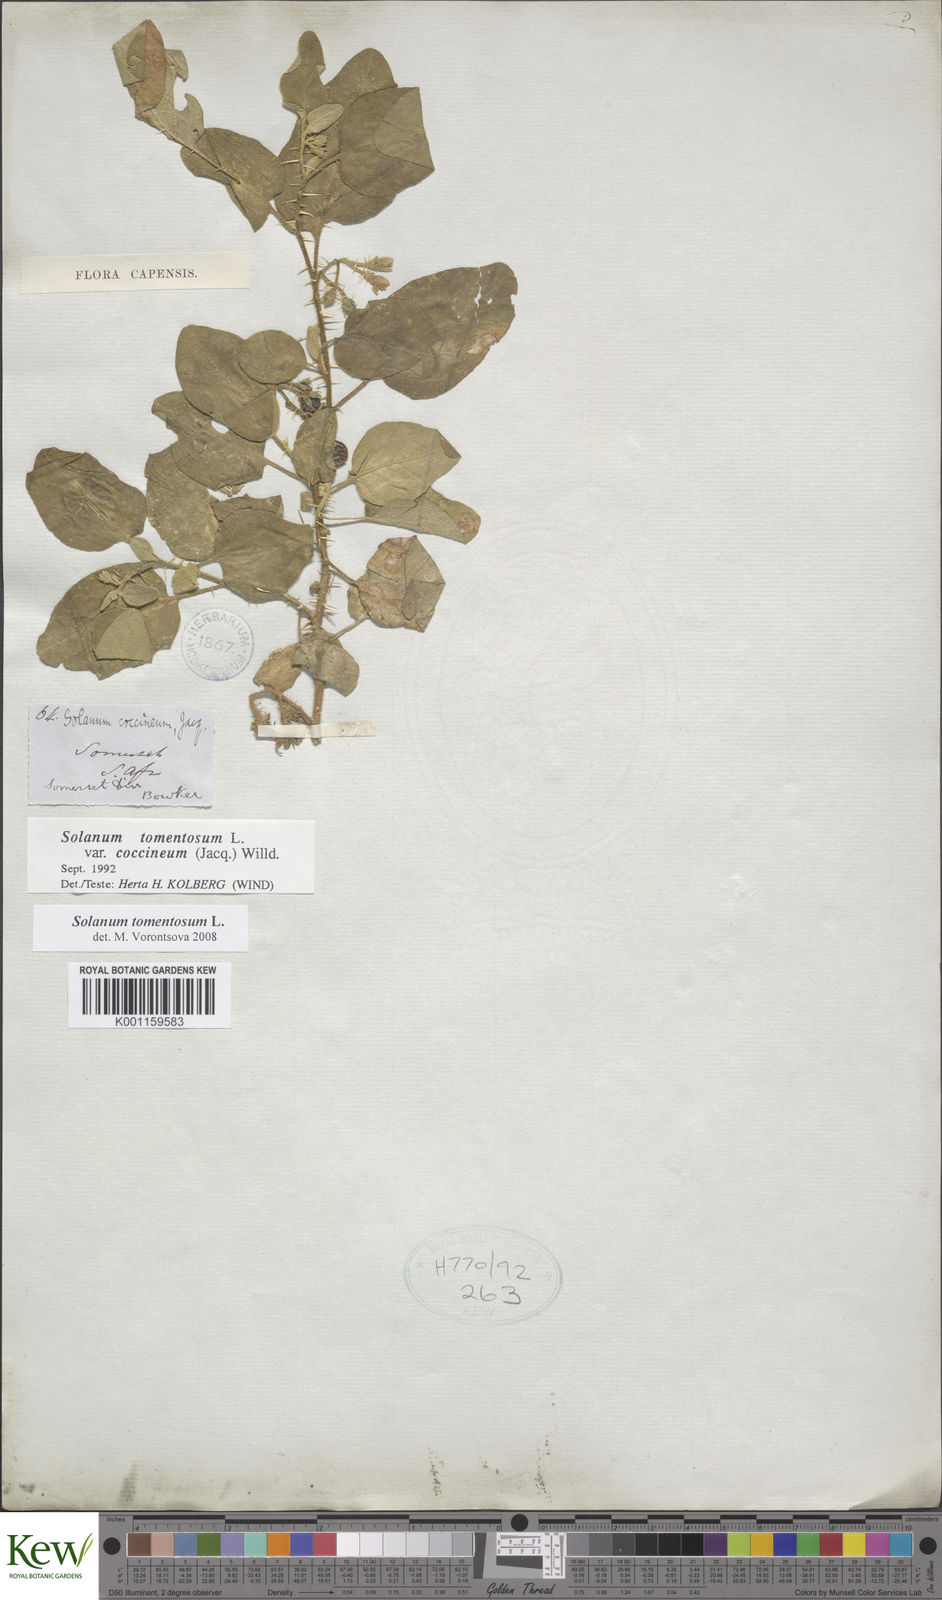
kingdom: Plantae
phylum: Tracheophyta
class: Magnoliopsida
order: Solanales
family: Solanaceae
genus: Solanum
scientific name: Solanum tomentosum
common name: Wild aubergine
